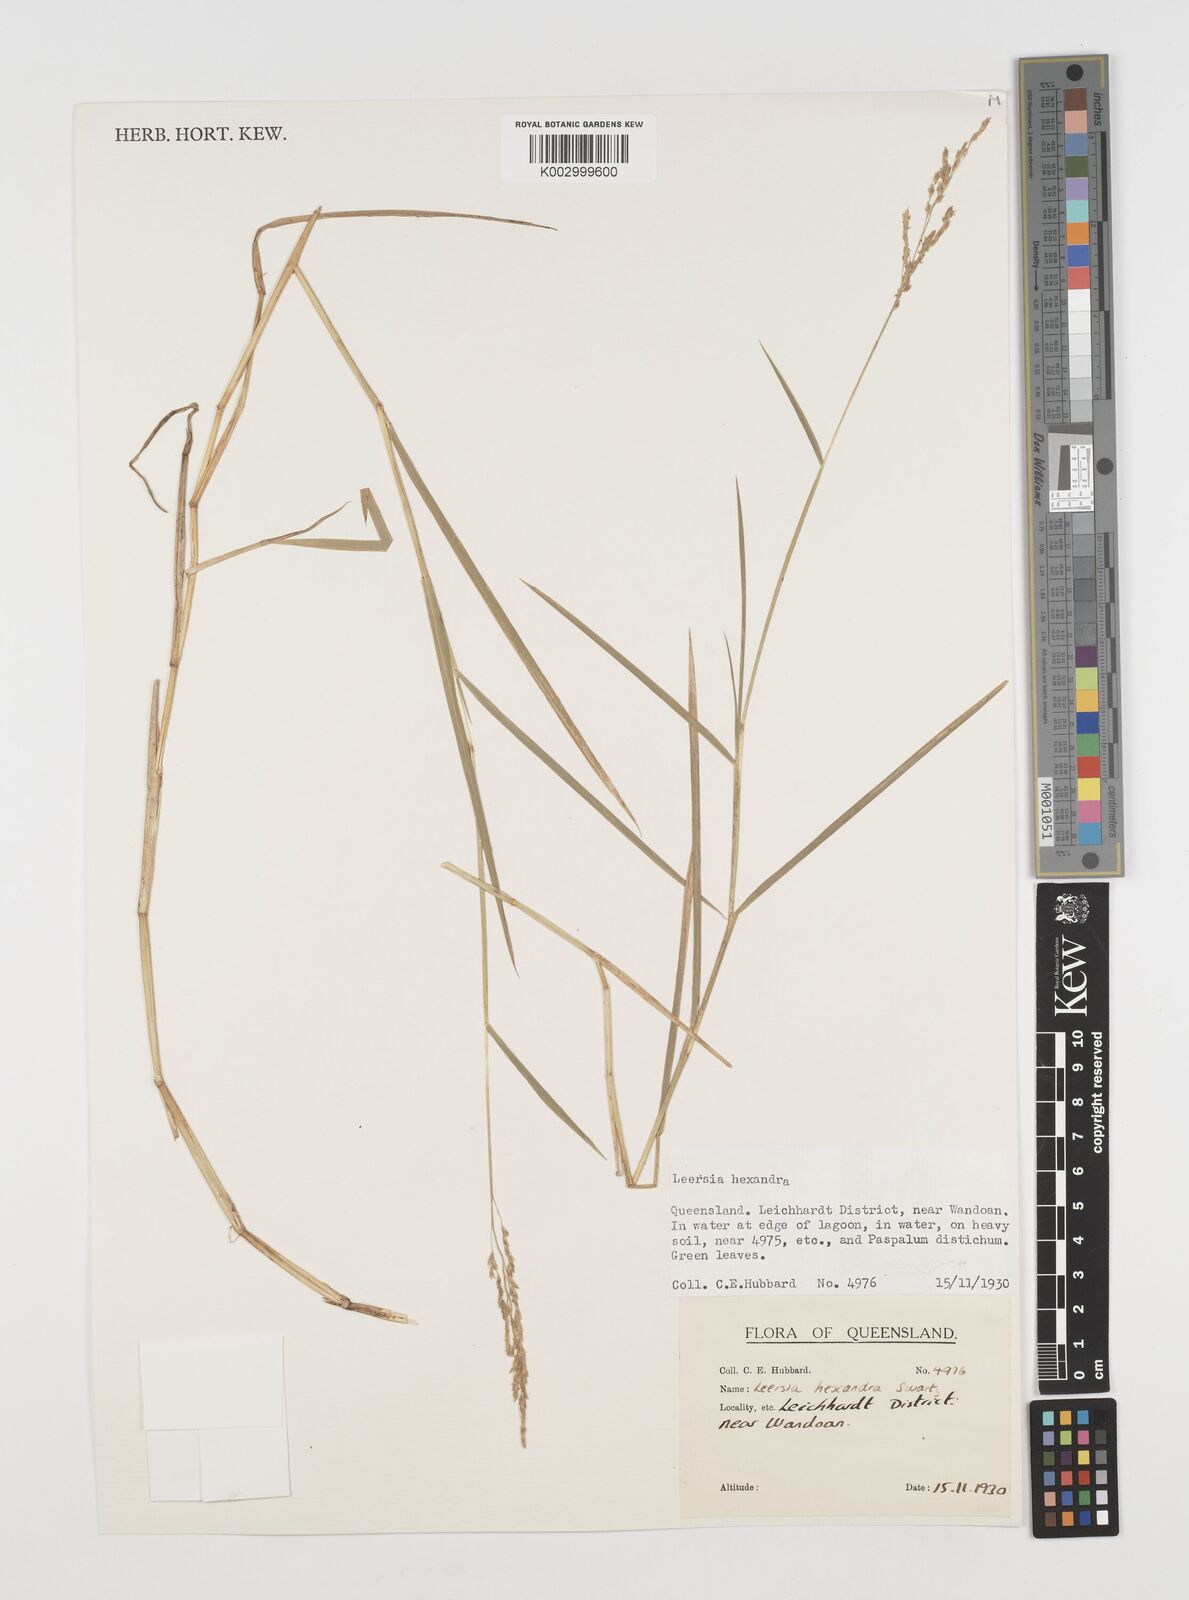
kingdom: Plantae
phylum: Tracheophyta
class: Liliopsida
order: Poales
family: Poaceae
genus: Leersia
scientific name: Leersia hexandra
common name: Southern cut grass
